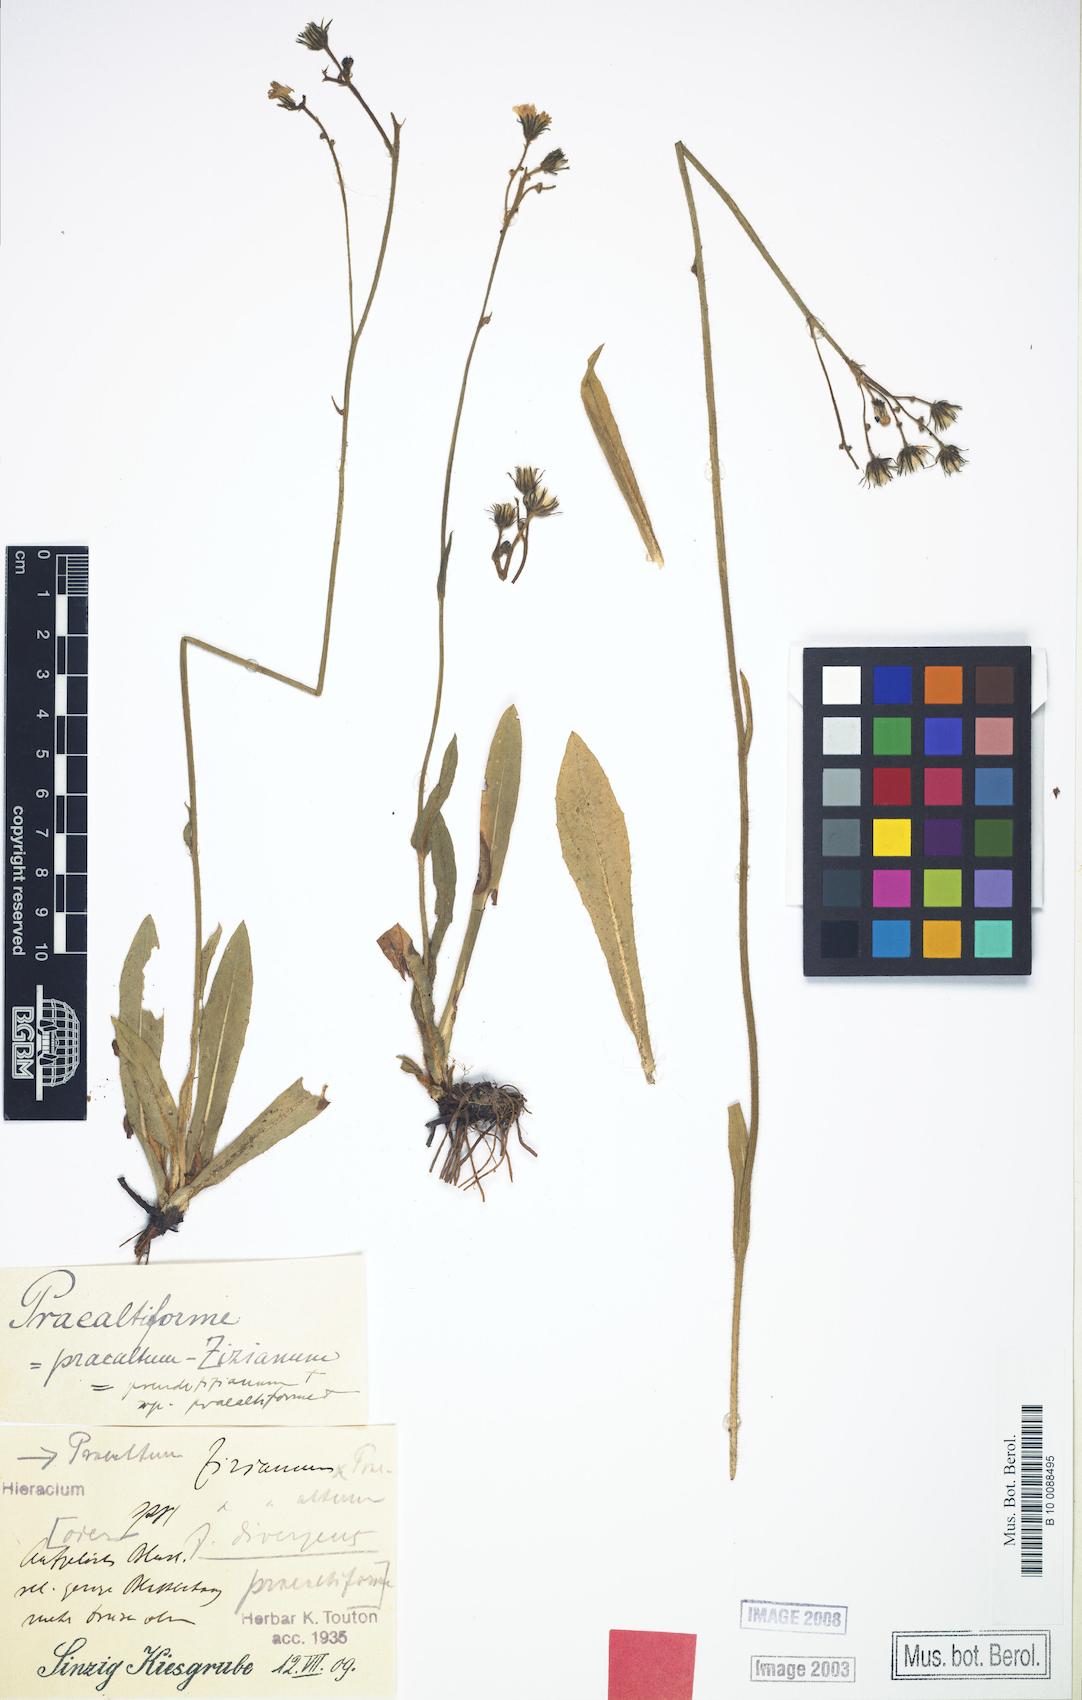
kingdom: Plantae
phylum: Tracheophyta
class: Magnoliopsida
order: Asterales
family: Asteraceae
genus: Hieracium
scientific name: Hieracium
